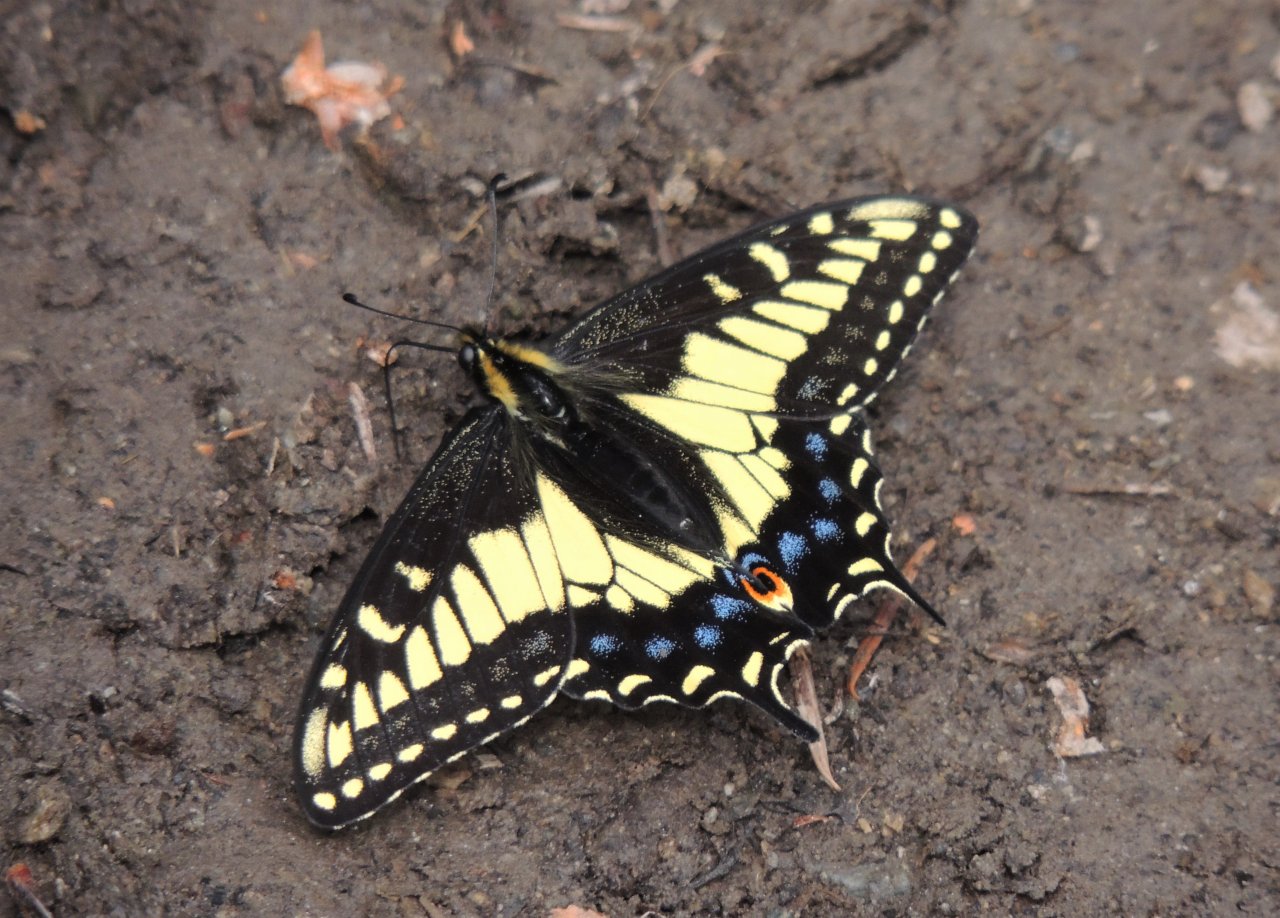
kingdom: Animalia
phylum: Arthropoda
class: Insecta
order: Lepidoptera
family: Papilionidae
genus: Papilio
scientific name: Papilio zelicaon
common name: Anise Swallowtail
